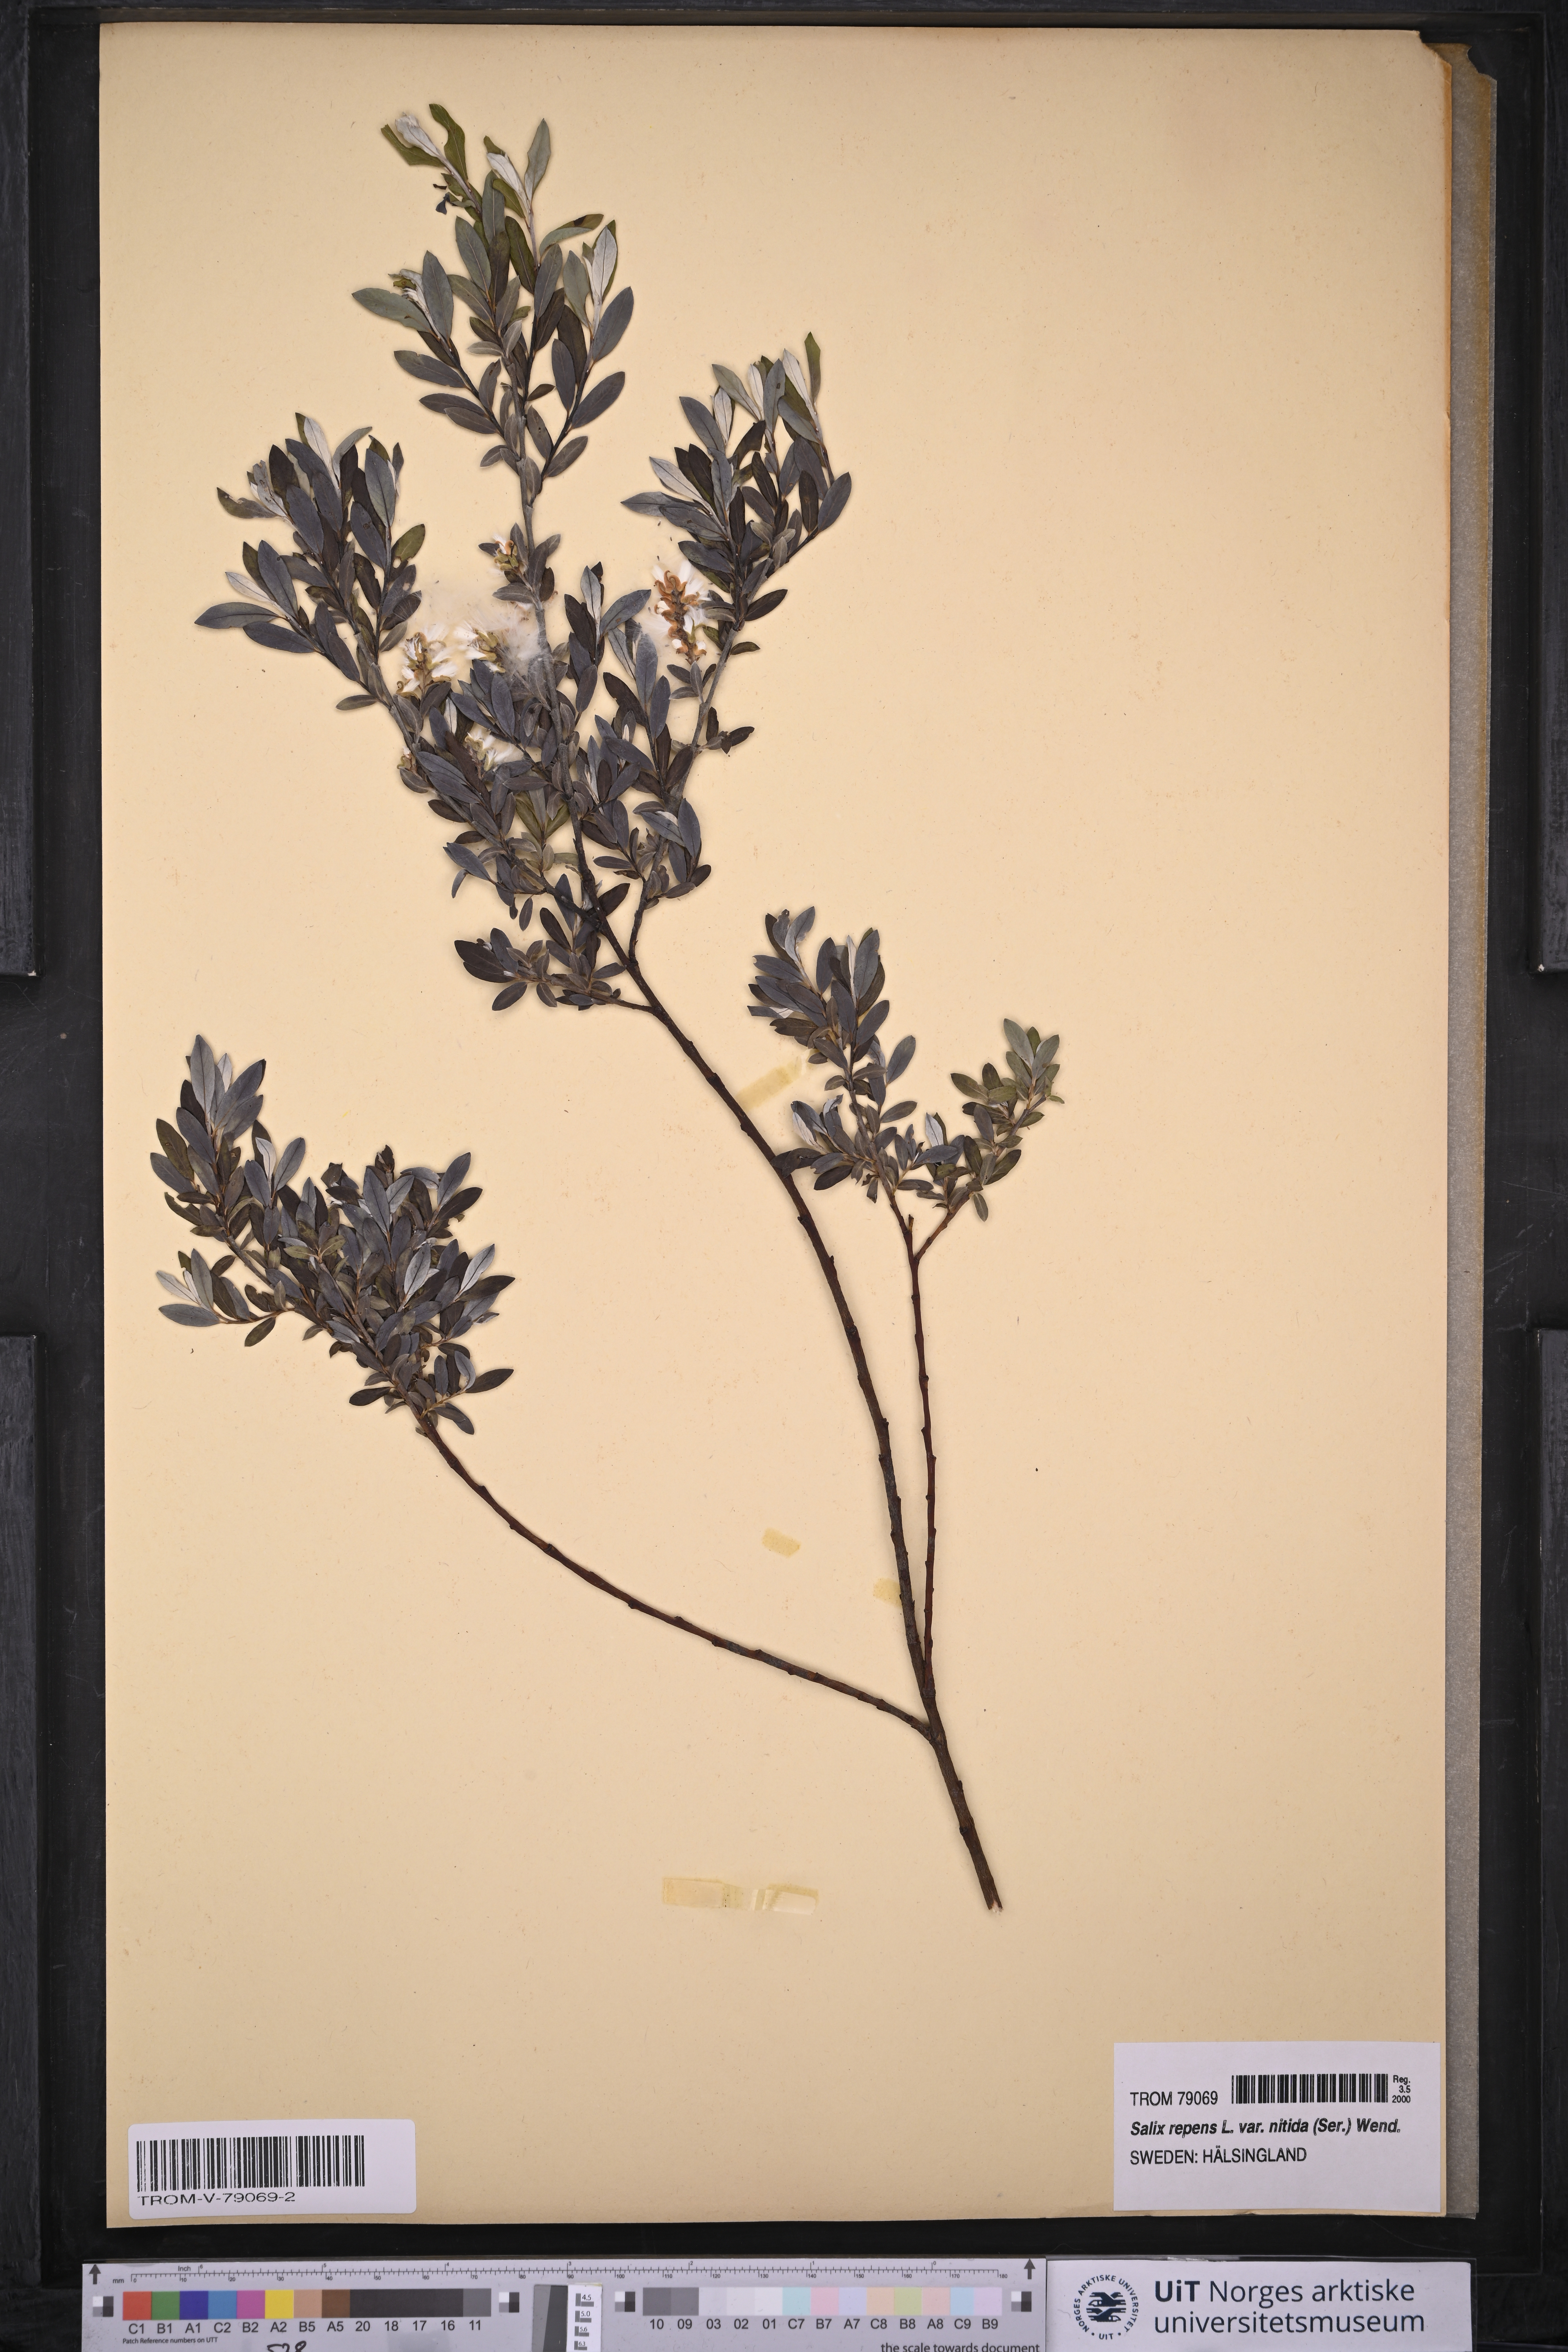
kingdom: Plantae
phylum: Tracheophyta
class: Magnoliopsida
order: Malpighiales
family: Salicaceae
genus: Salix
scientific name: Salix repens
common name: Creeping willow
